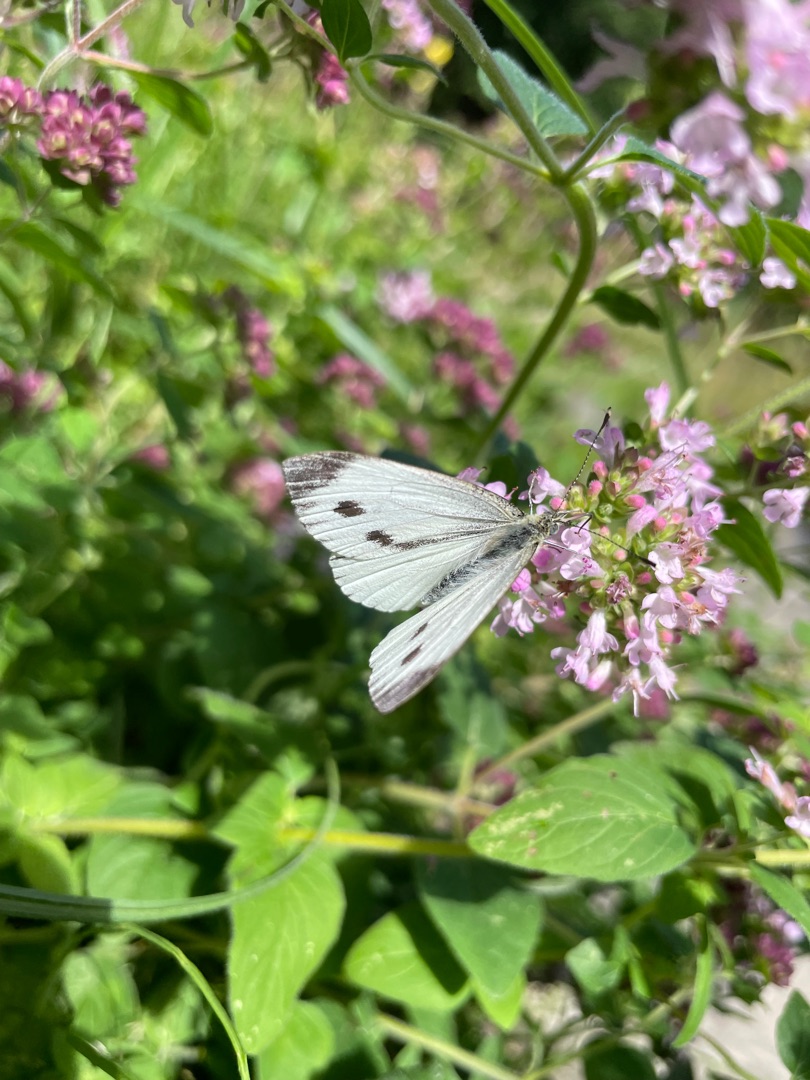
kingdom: Animalia
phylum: Arthropoda
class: Insecta
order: Lepidoptera
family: Pieridae
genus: Pieris
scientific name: Pieris napi
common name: Grønåret kålsommerfugl
